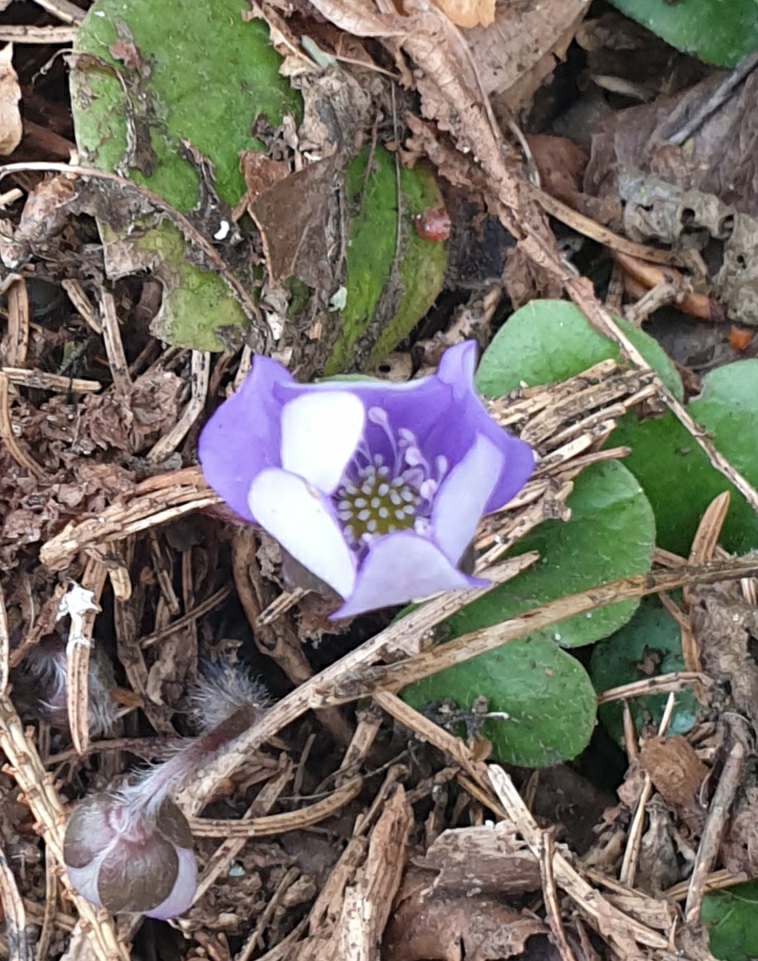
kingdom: Plantae
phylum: Tracheophyta
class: Magnoliopsida
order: Ranunculales
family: Ranunculaceae
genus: Hepatica
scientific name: Hepatica nobilis
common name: Blå anemone
